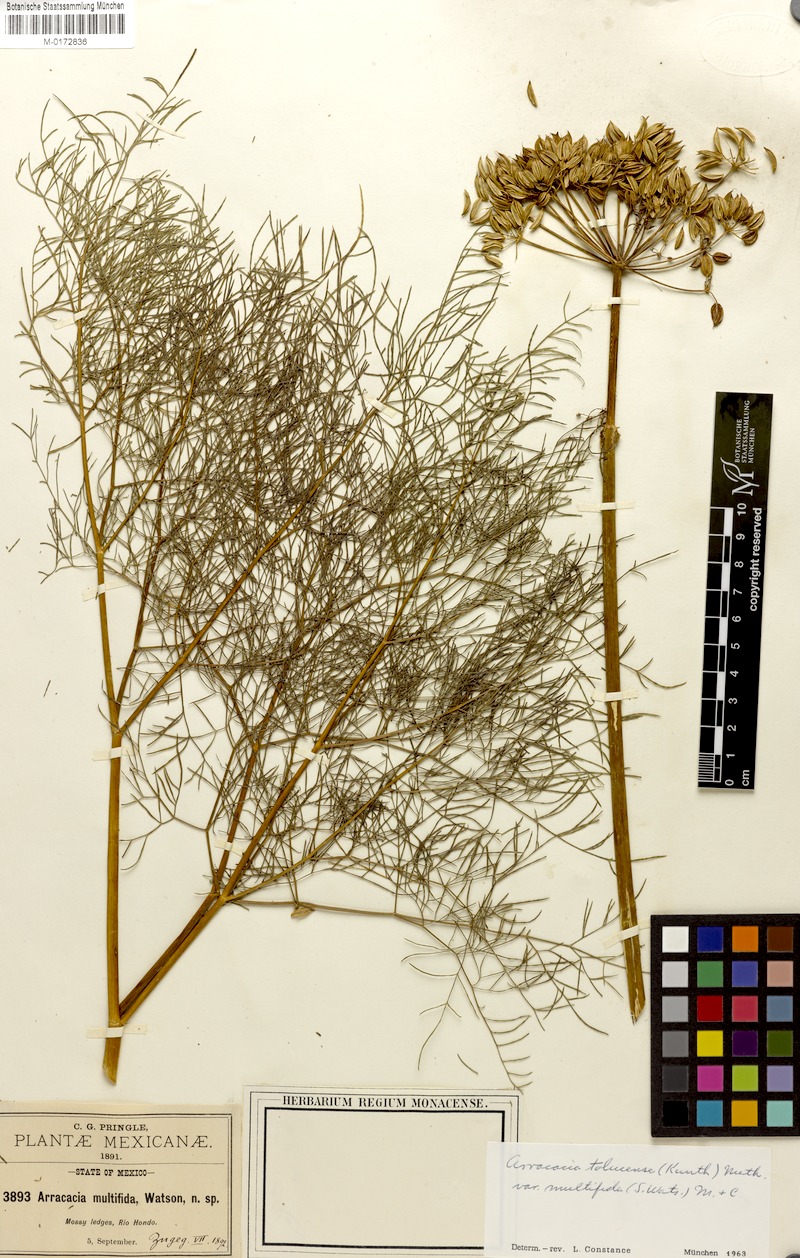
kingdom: Plantae
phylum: Tracheophyta
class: Magnoliopsida
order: Apiales
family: Apiaceae
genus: Arracacia
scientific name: Arracacia tolucensis
